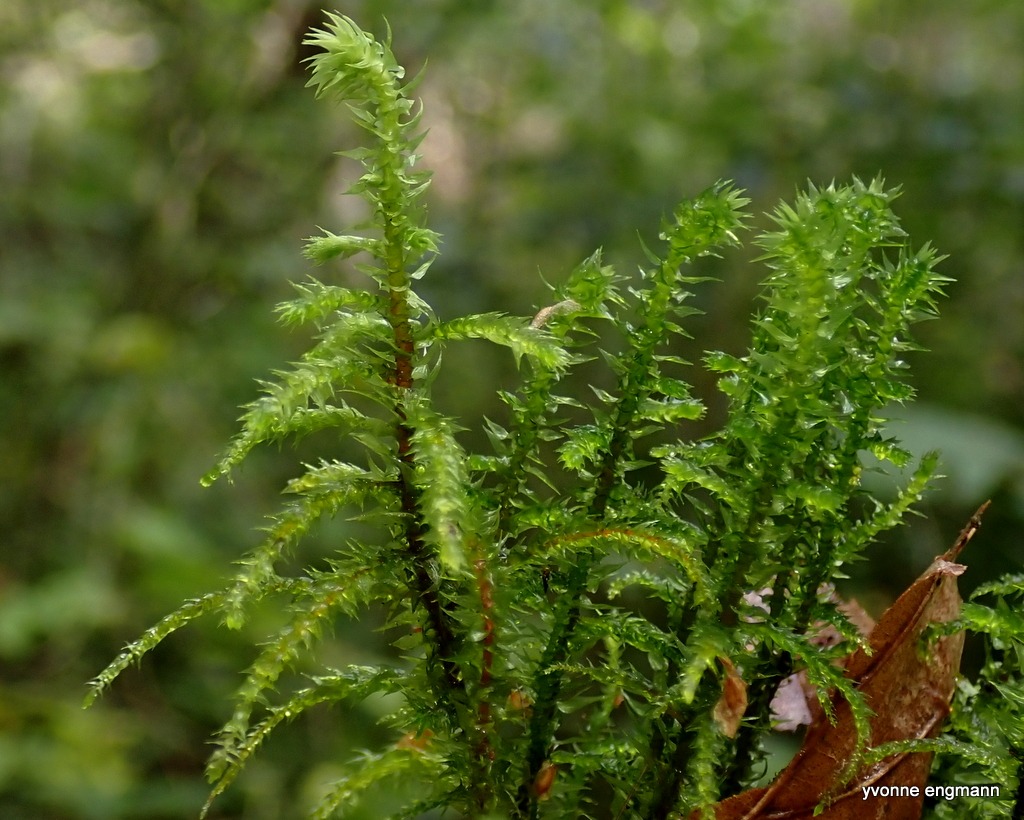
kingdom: Plantae
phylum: Bryophyta
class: Bryopsida
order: Hypnales
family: Hylocomiaceae
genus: Hylocomiadelphus
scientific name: Hylocomiadelphus triquetrus
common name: Stor kransemos
